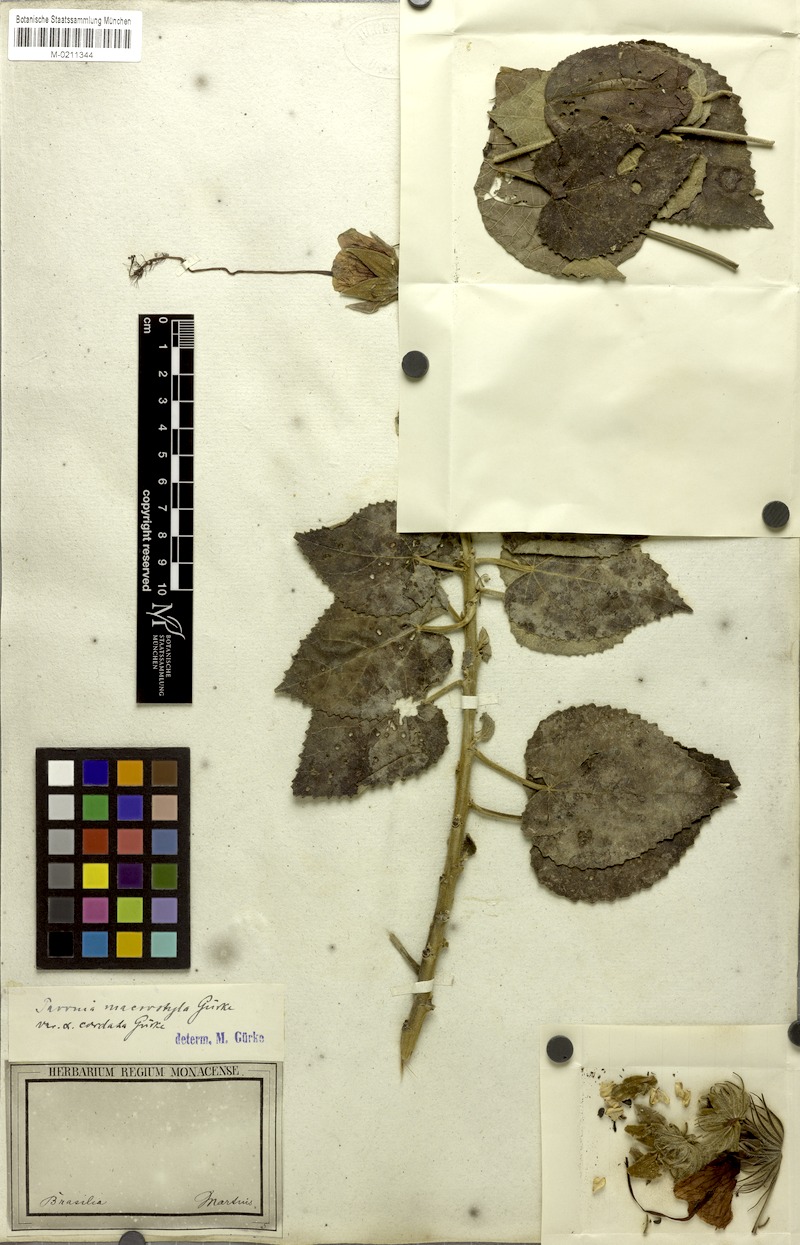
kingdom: Plantae
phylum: Tracheophyta
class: Magnoliopsida
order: Malvales
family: Malvaceae
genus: Pavonia
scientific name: Pavonia macrostyla
